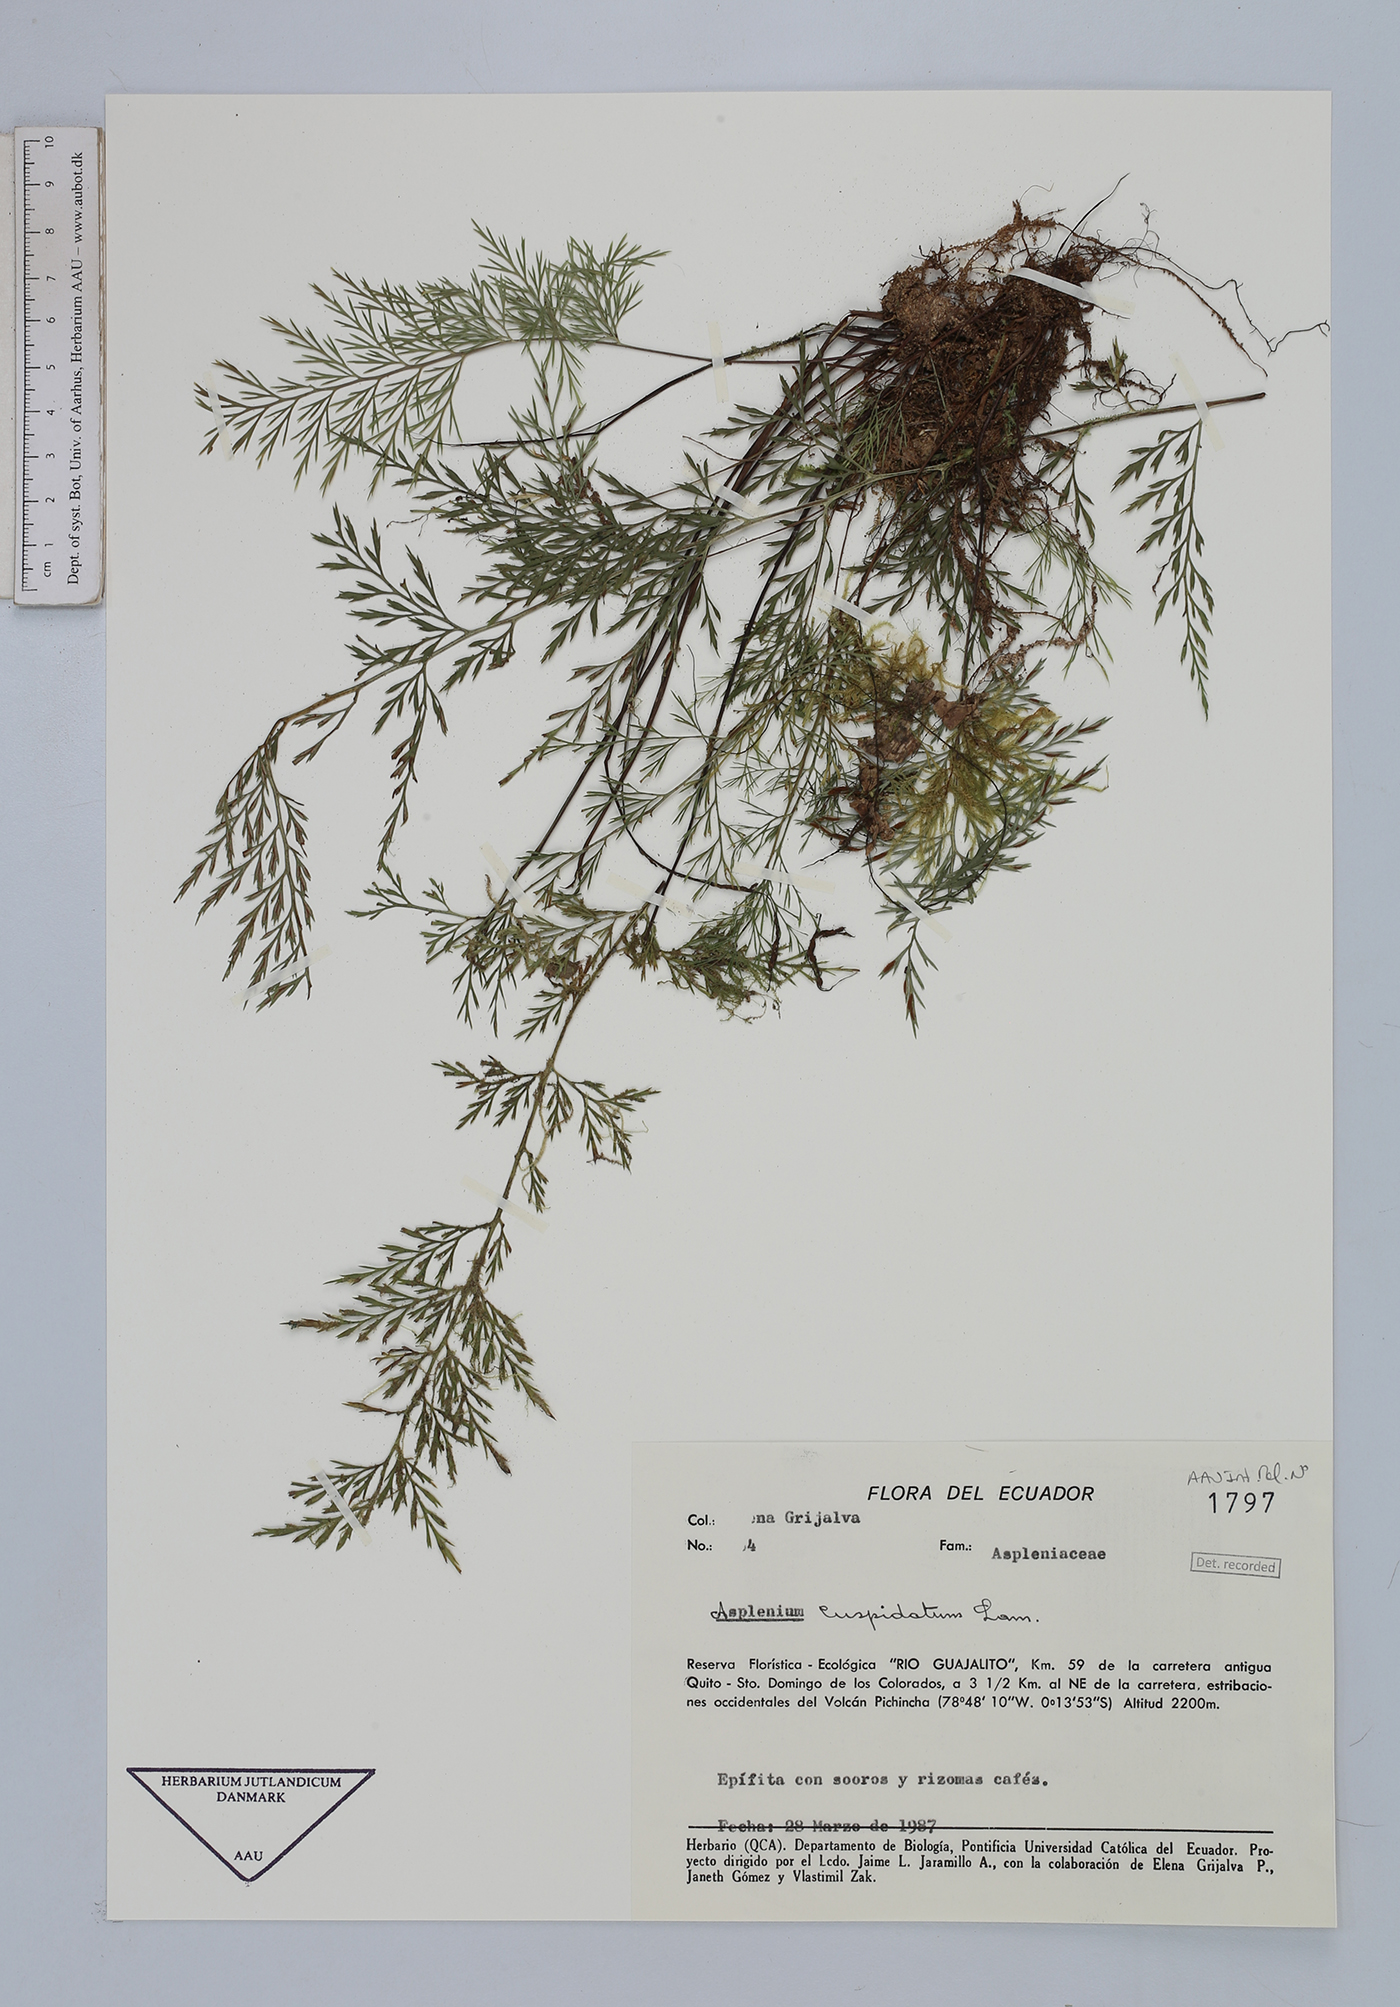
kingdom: Plantae
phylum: Tracheophyta
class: Polypodiopsida
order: Polypodiales
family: Aspleniaceae
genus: Asplenium
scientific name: Asplenium cuspidatum
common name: Eared spleenwort
